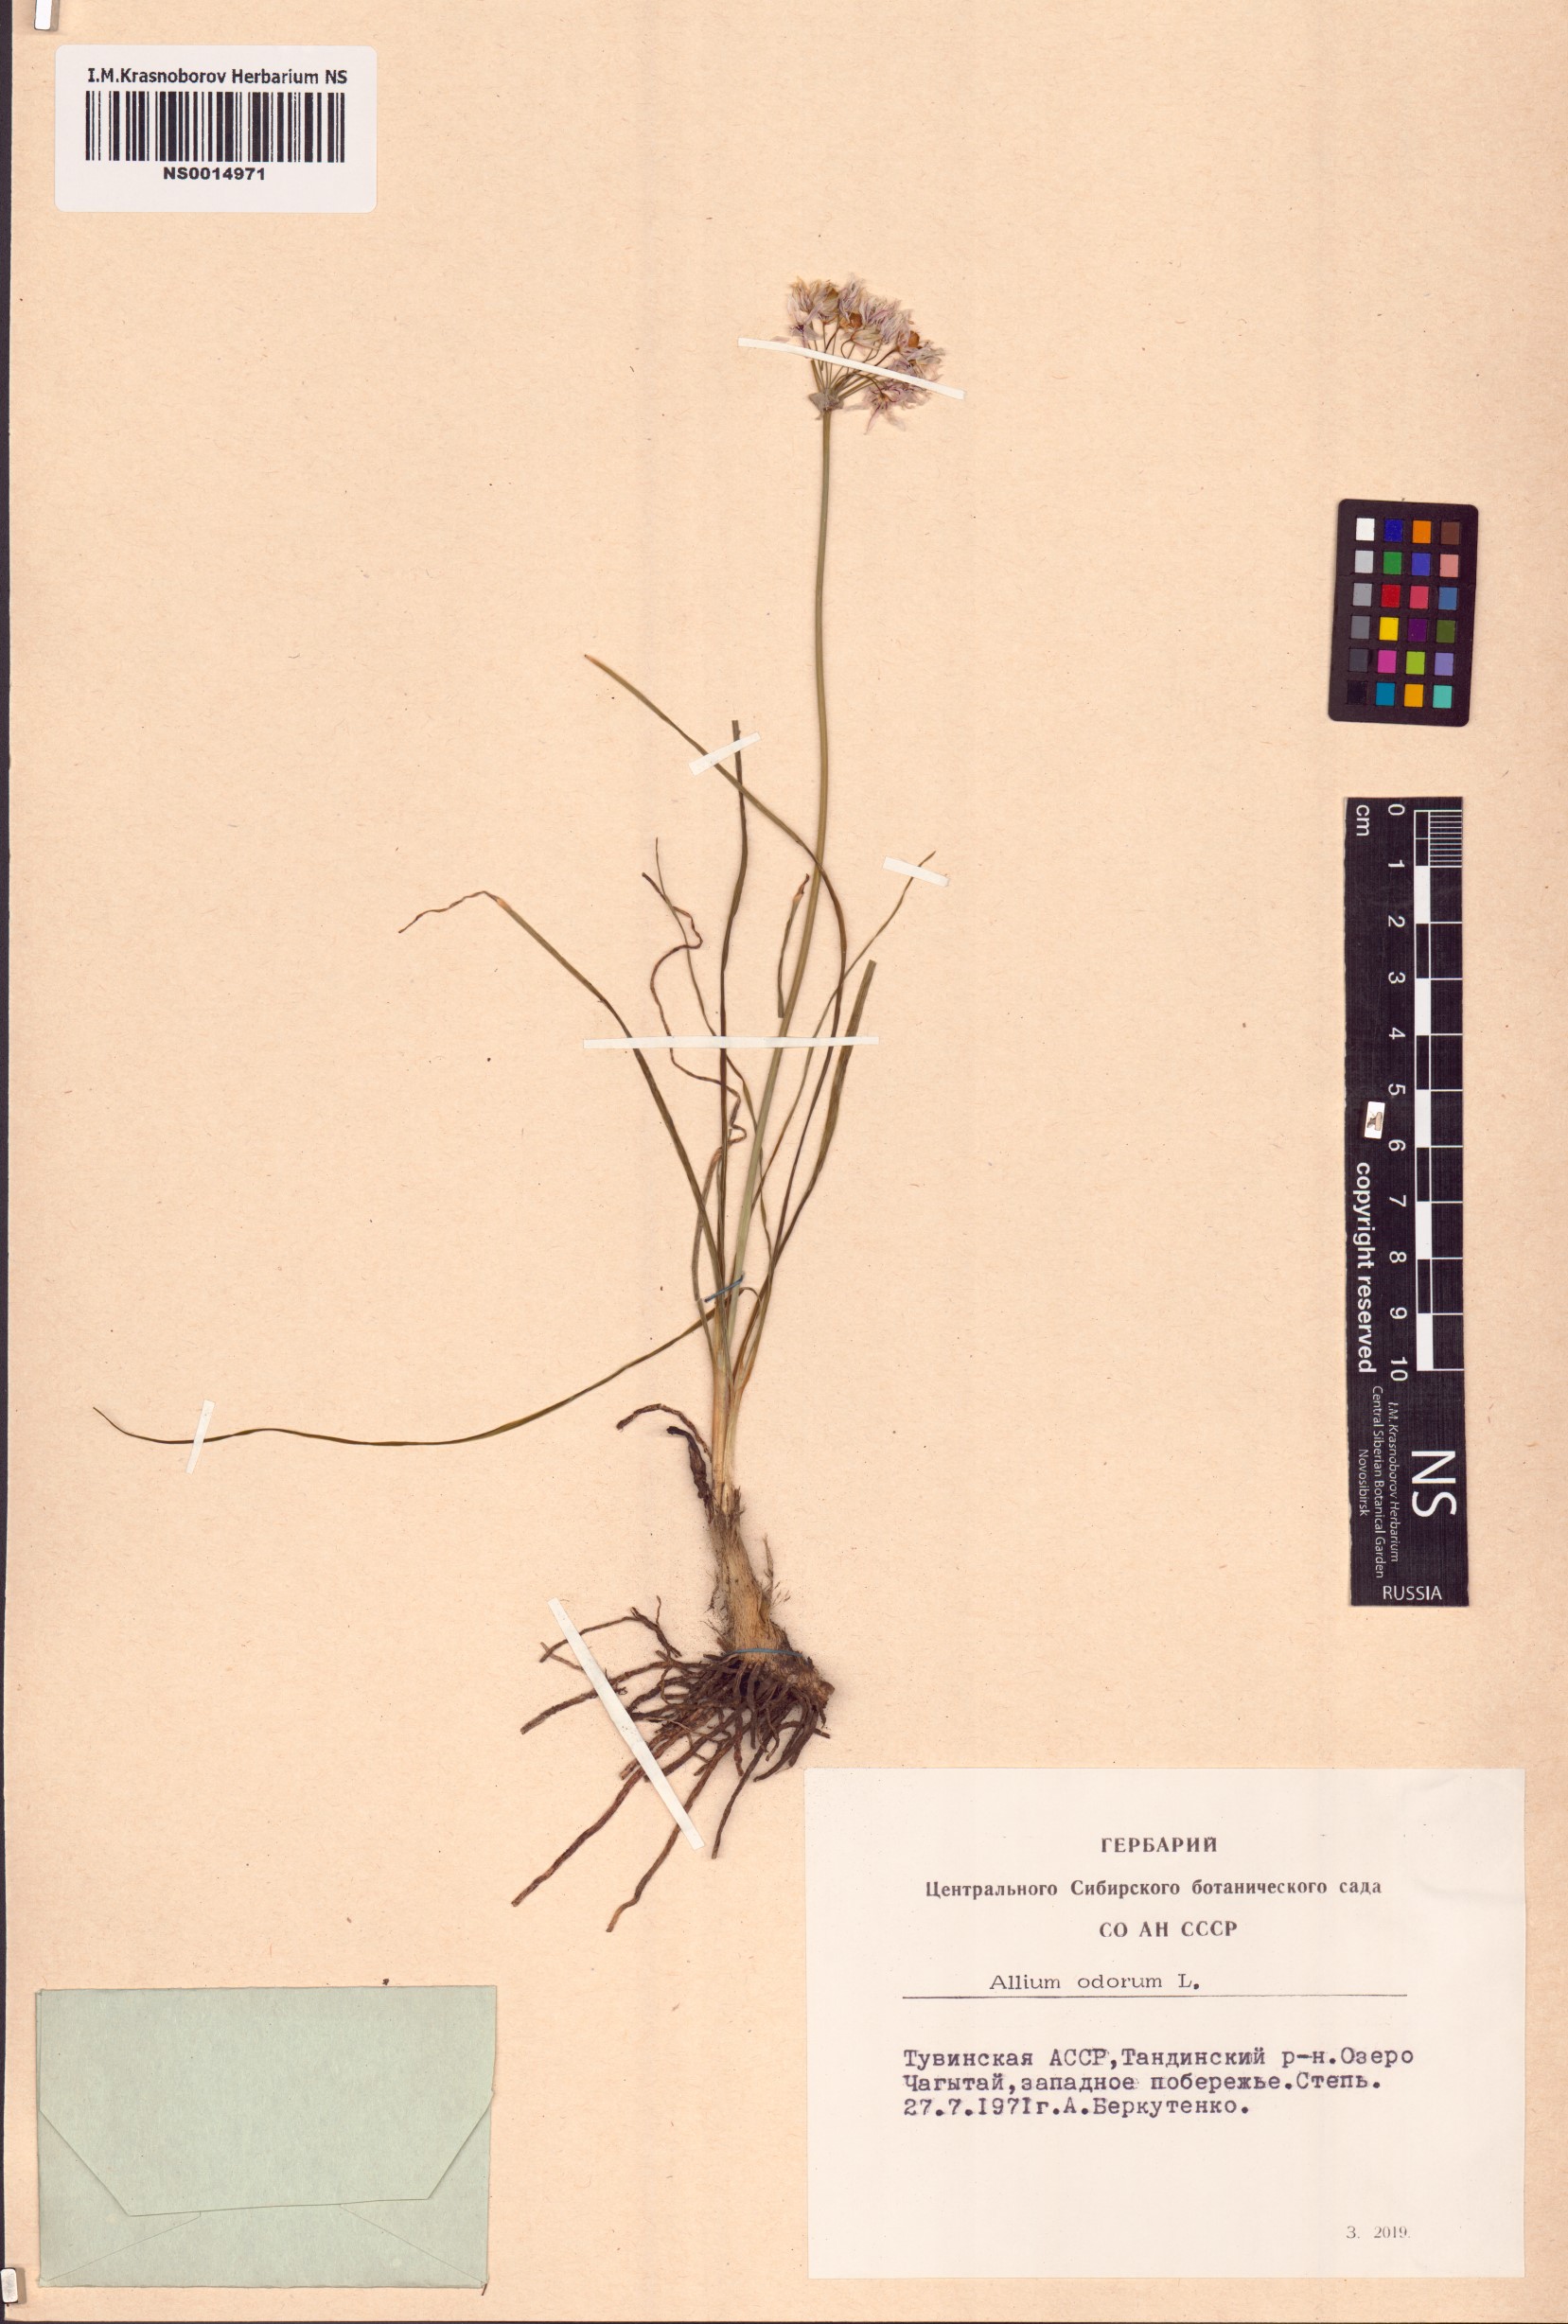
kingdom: Plantae
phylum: Tracheophyta
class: Liliopsida
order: Asparagales
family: Amaryllidaceae
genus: Allium
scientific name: Allium ramosum
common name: Fragrant garlic
